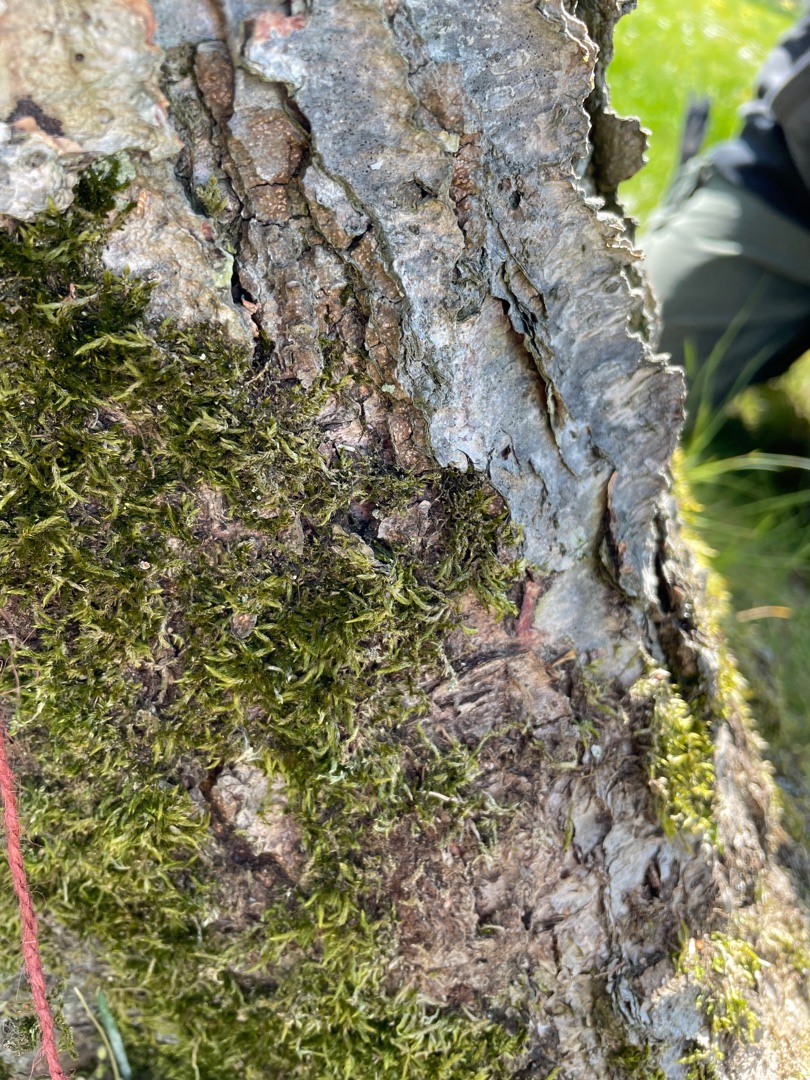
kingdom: Plantae
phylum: Bryophyta
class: Bryopsida
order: Hypnales
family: Hypnaceae
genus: Hypnum
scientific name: Hypnum
